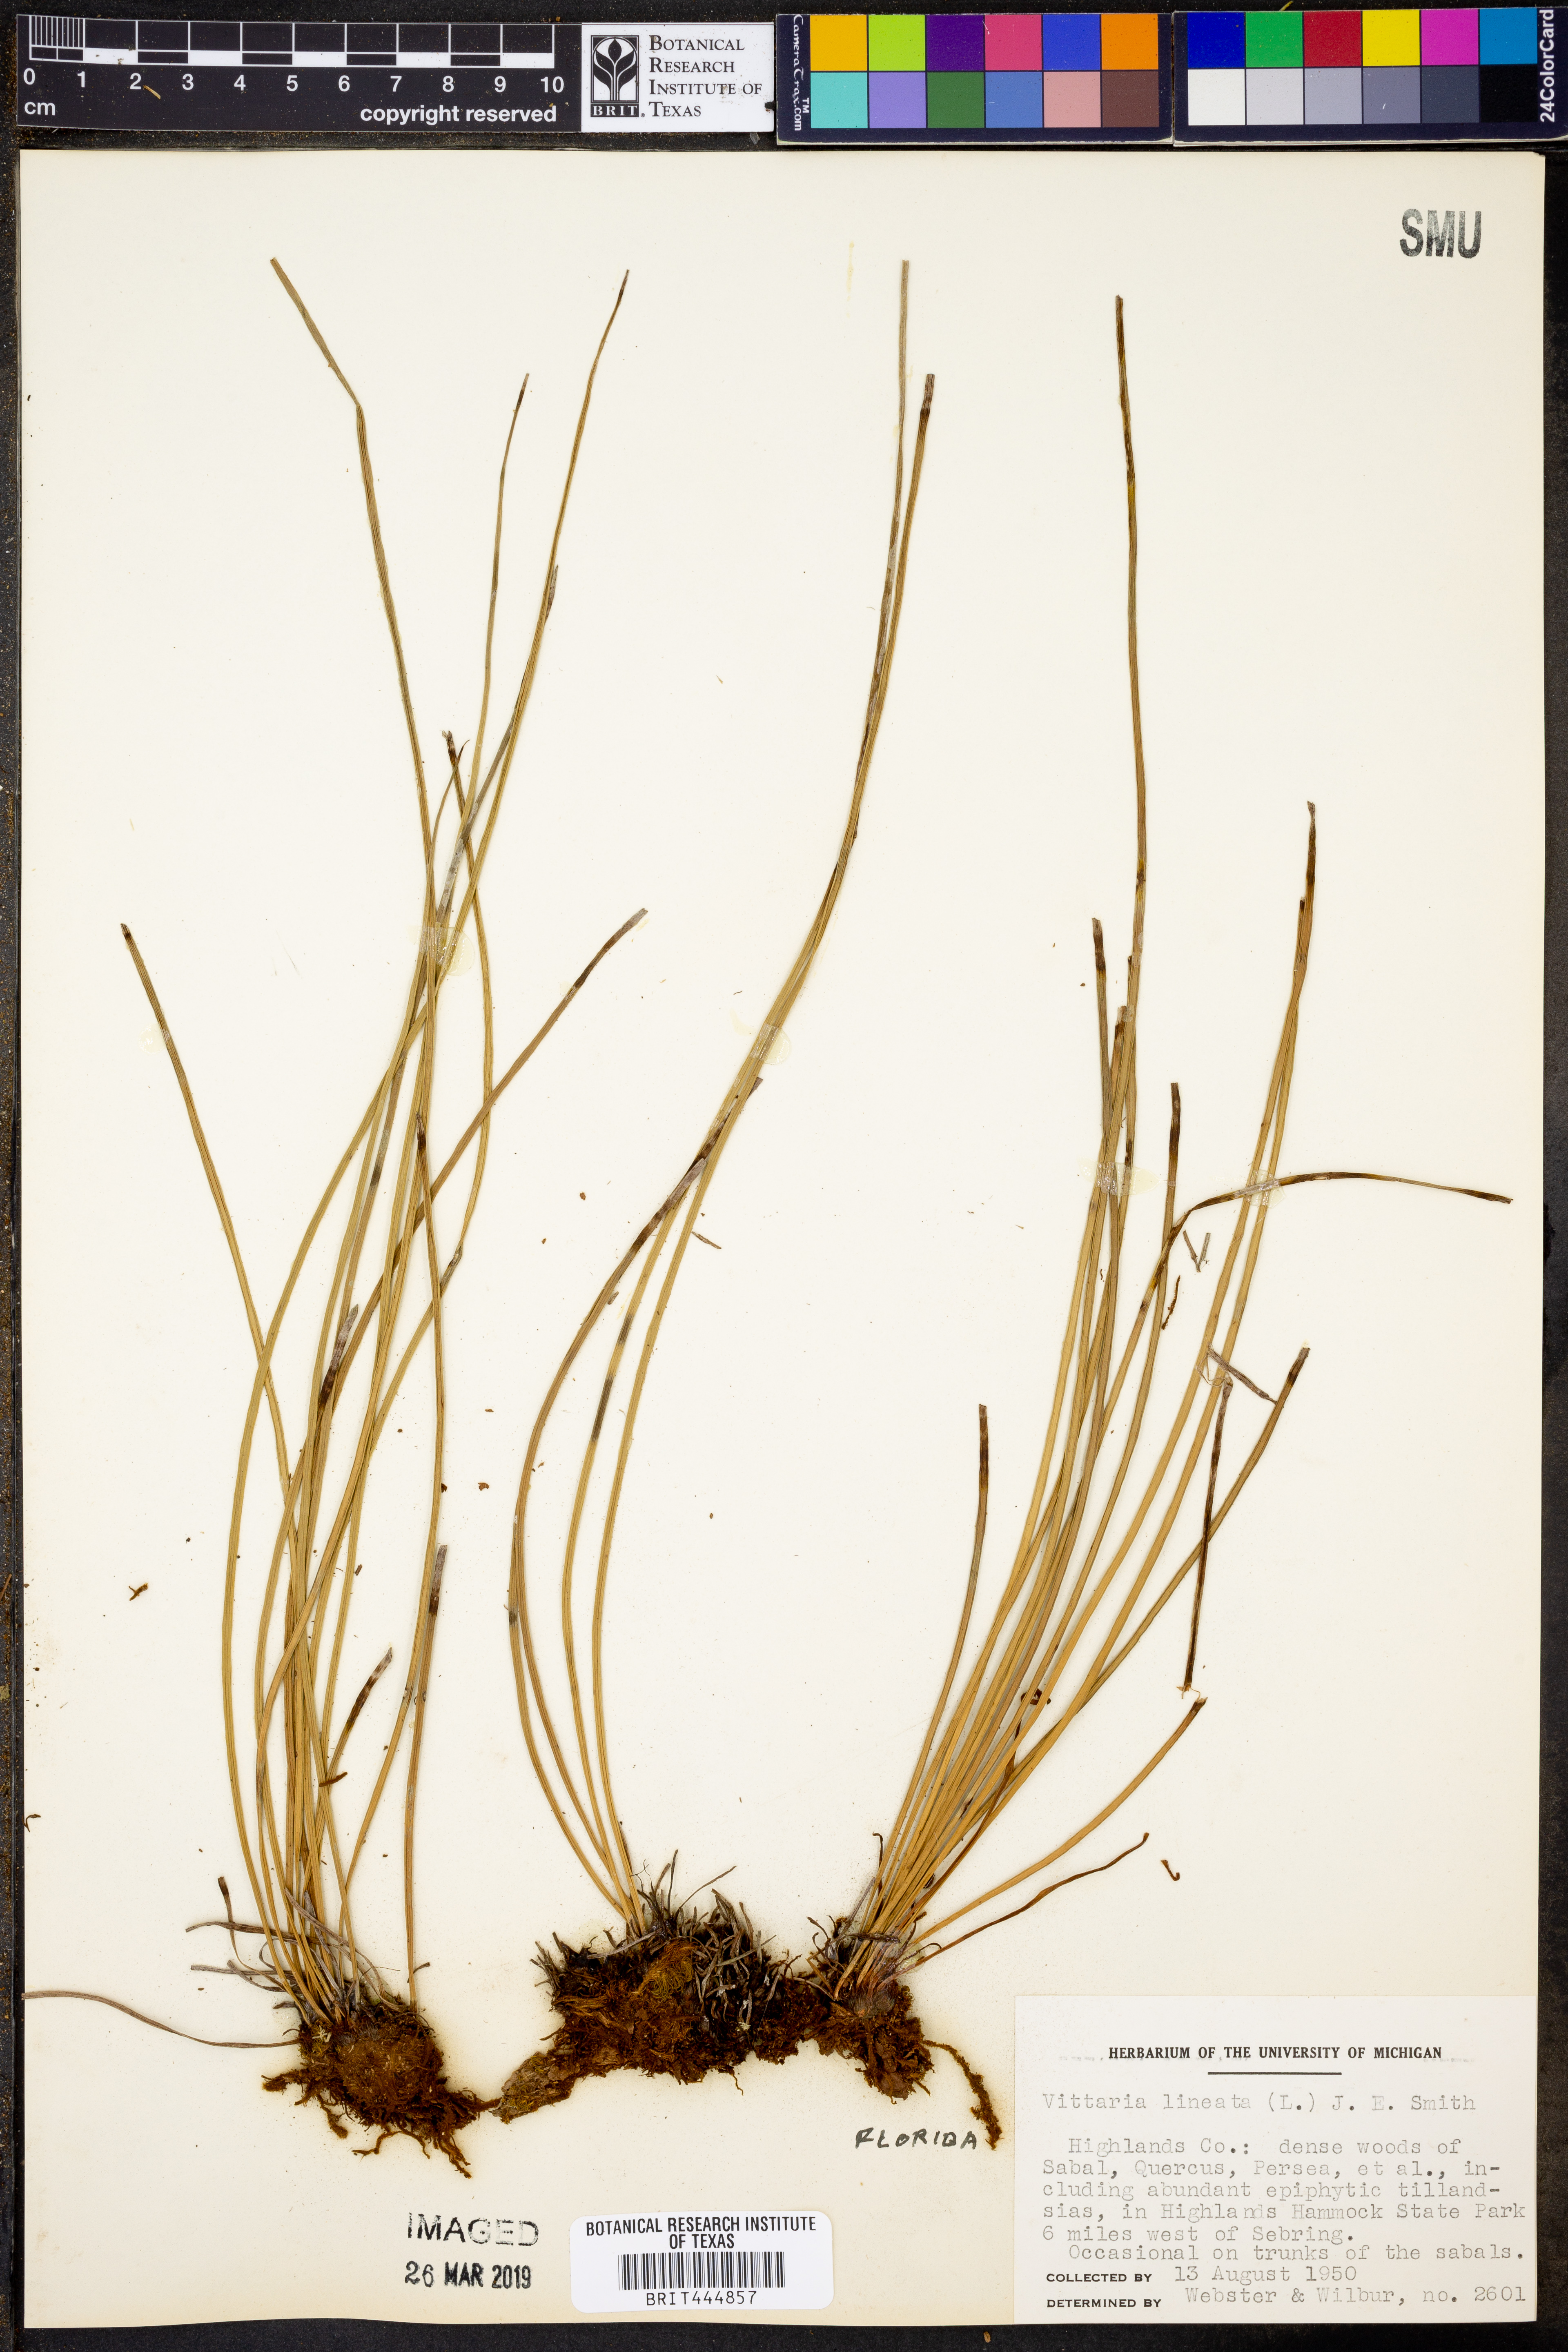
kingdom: Plantae
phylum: Tracheophyta
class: Polypodiopsida
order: Polypodiales
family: Pteridaceae
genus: Vittaria
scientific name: Vittaria lineata
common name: Shoestring fern
